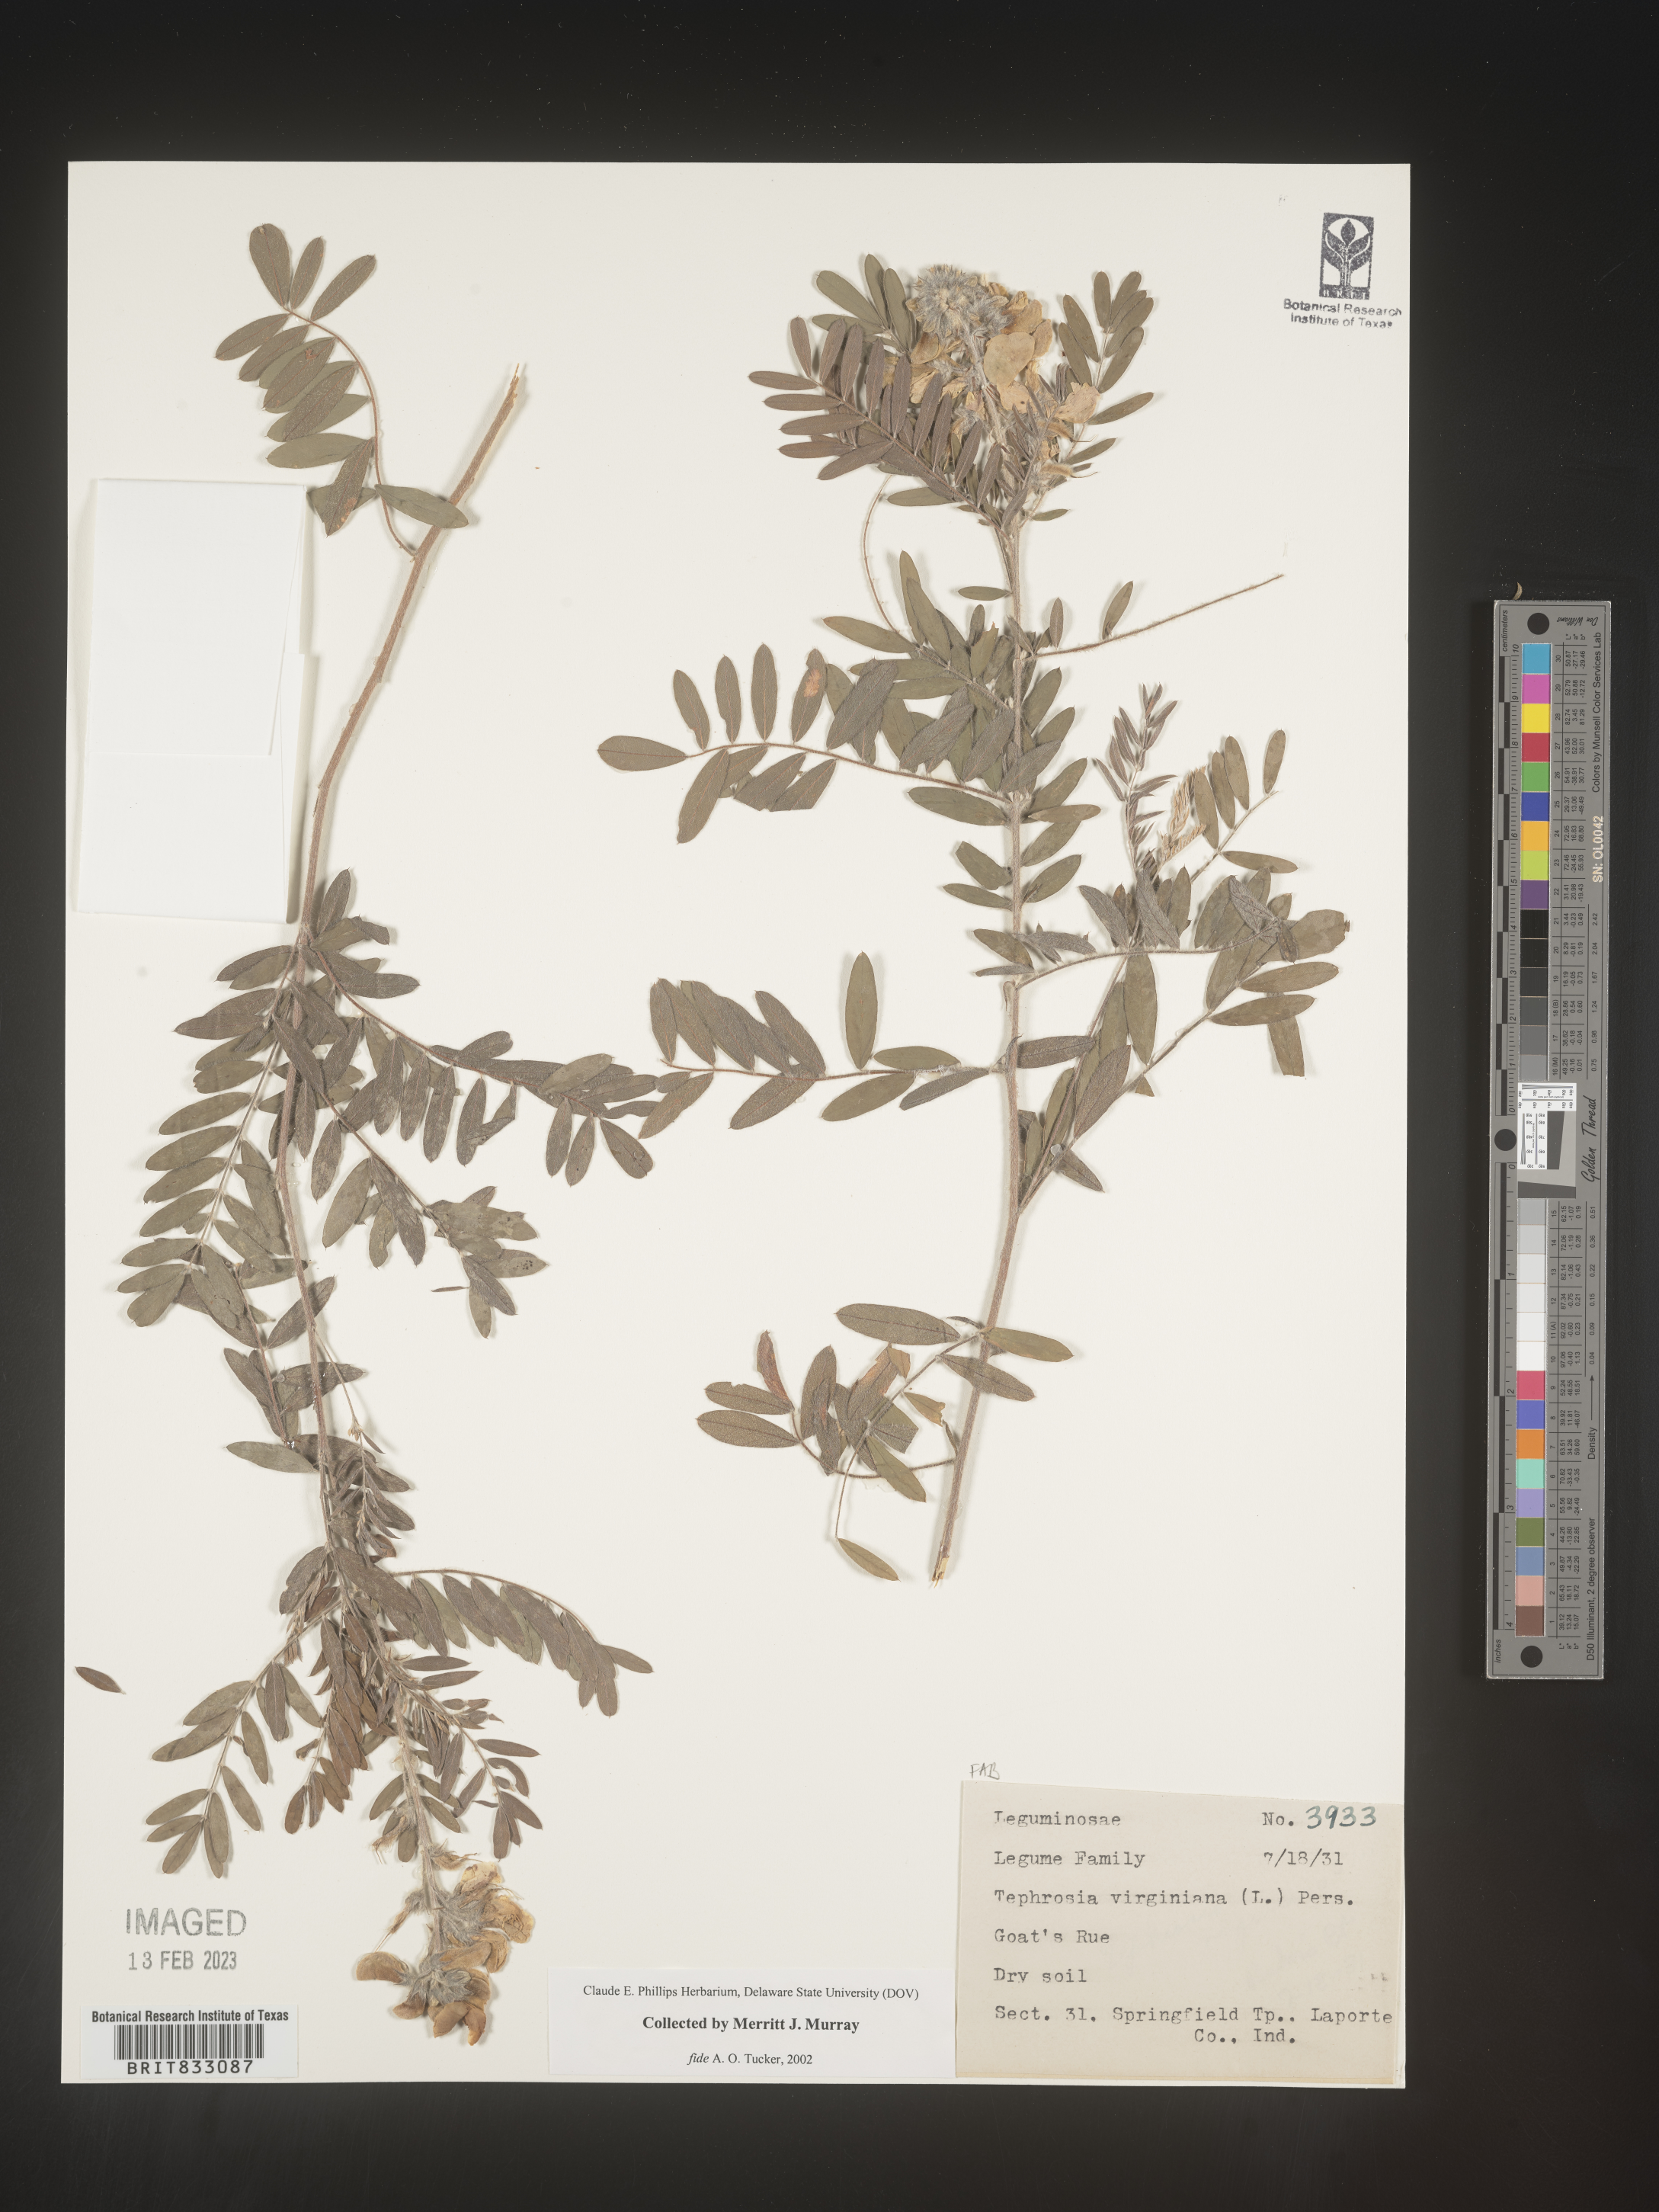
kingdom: Plantae
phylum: Tracheophyta
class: Magnoliopsida
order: Fabales
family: Fabaceae
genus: Tephrosia
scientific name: Tephrosia virginiana
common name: Rabbit-pea
